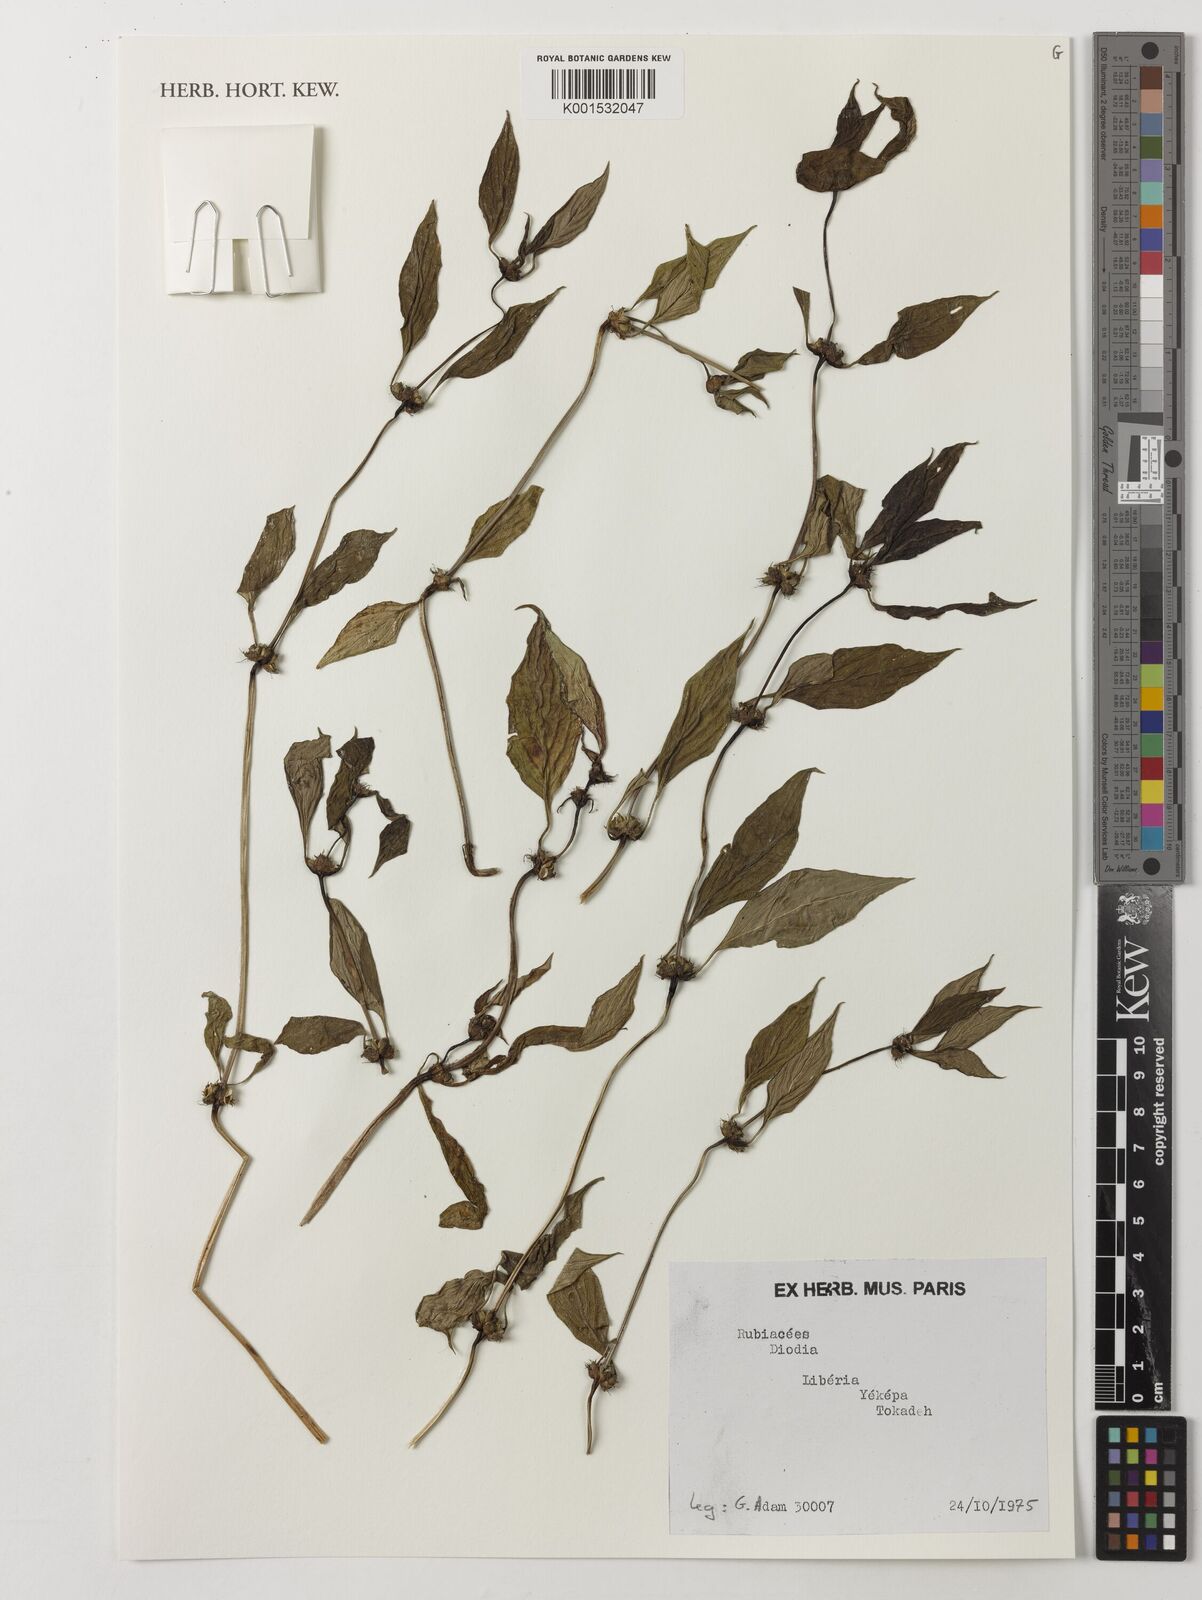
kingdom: Plantae
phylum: Tracheophyta
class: Magnoliopsida
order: Gentianales
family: Rubiaceae
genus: Diodia
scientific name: Diodia
